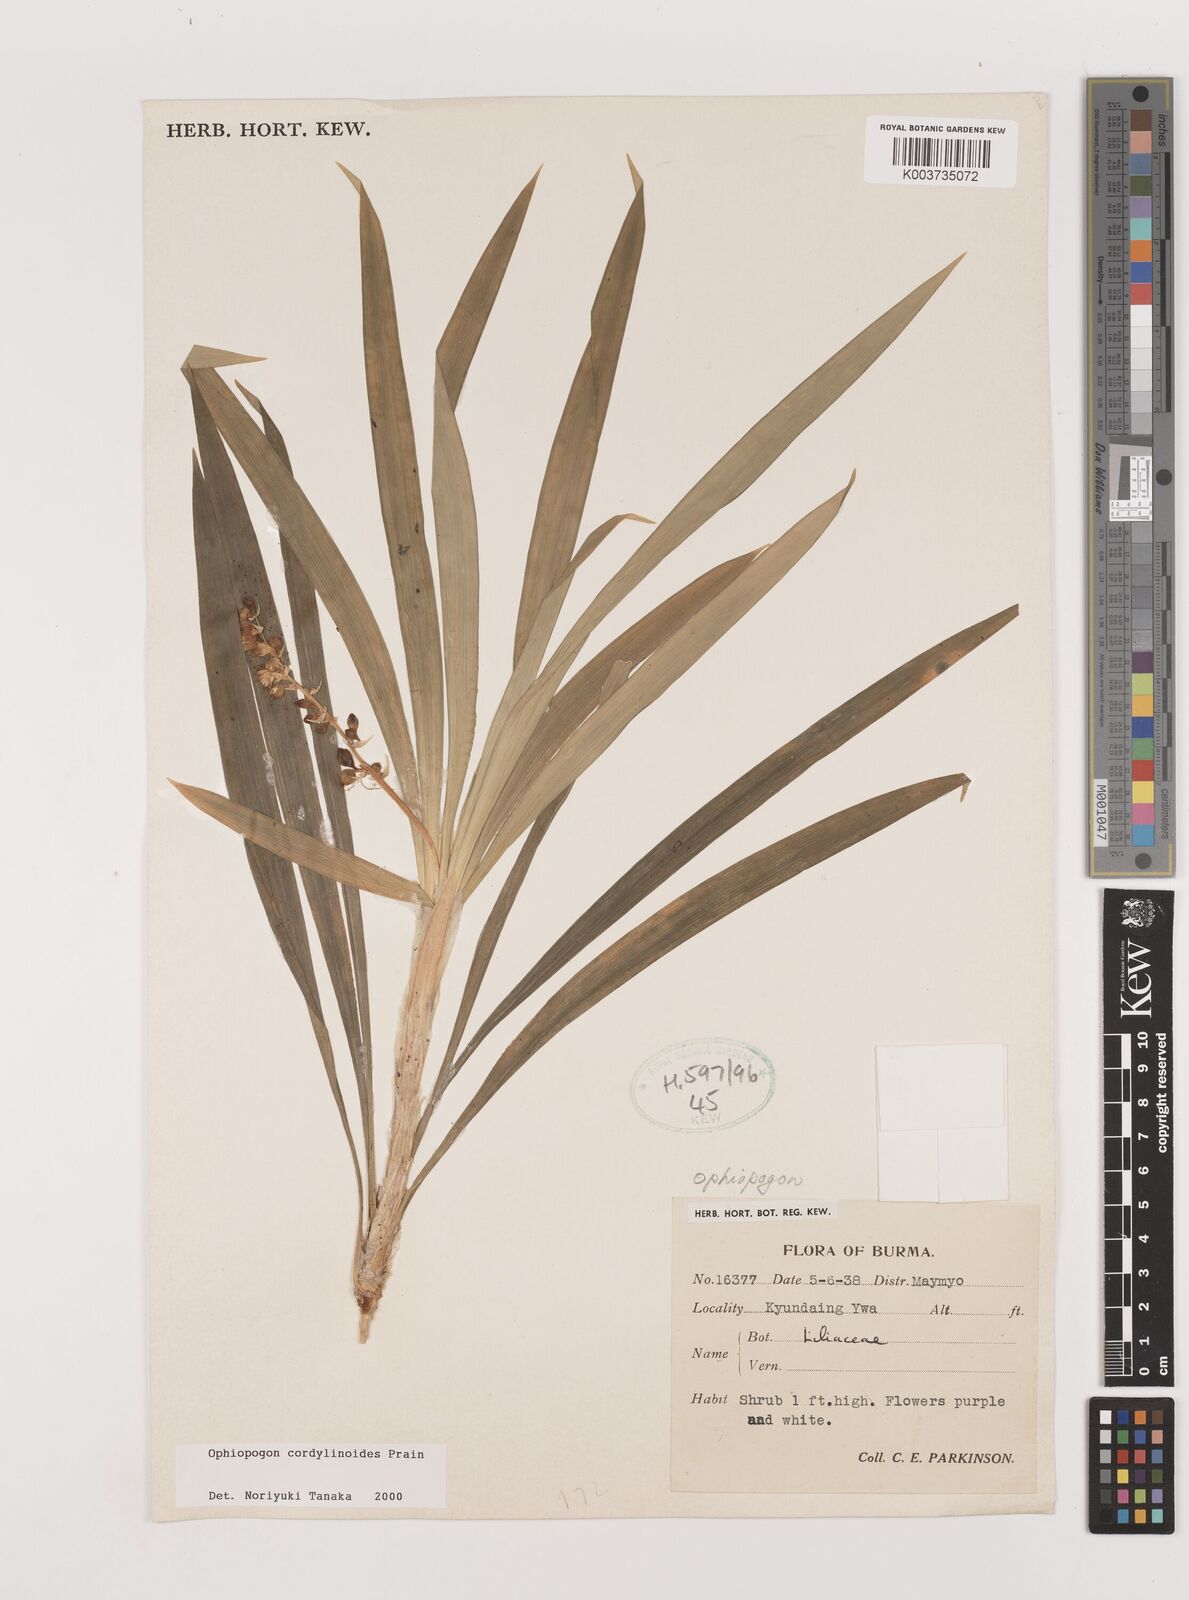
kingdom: Plantae
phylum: Tracheophyta
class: Liliopsida
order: Asparagales
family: Asparagaceae
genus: Ophiopogon
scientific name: Ophiopogon cordylinoides
